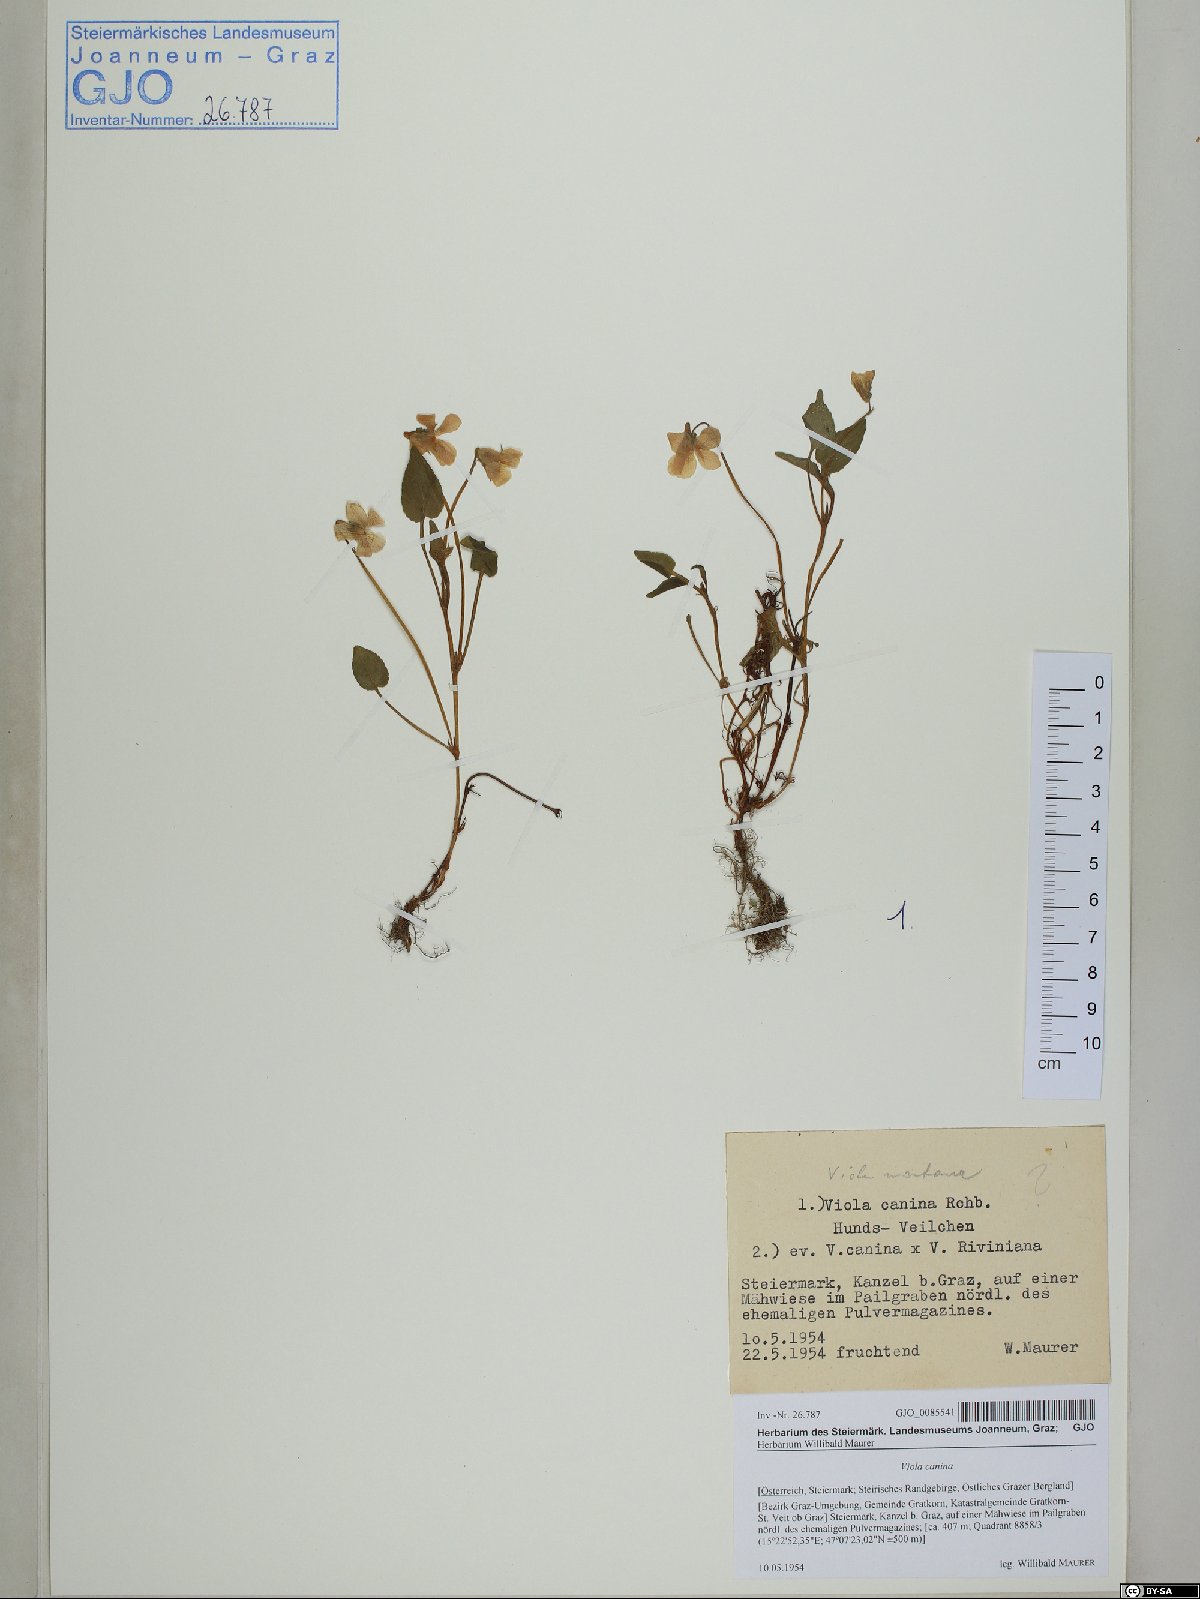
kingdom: Plantae
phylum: Tracheophyta
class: Magnoliopsida
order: Malpighiales
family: Violaceae
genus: Viola
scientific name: Viola canina
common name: Heath dog-violet
